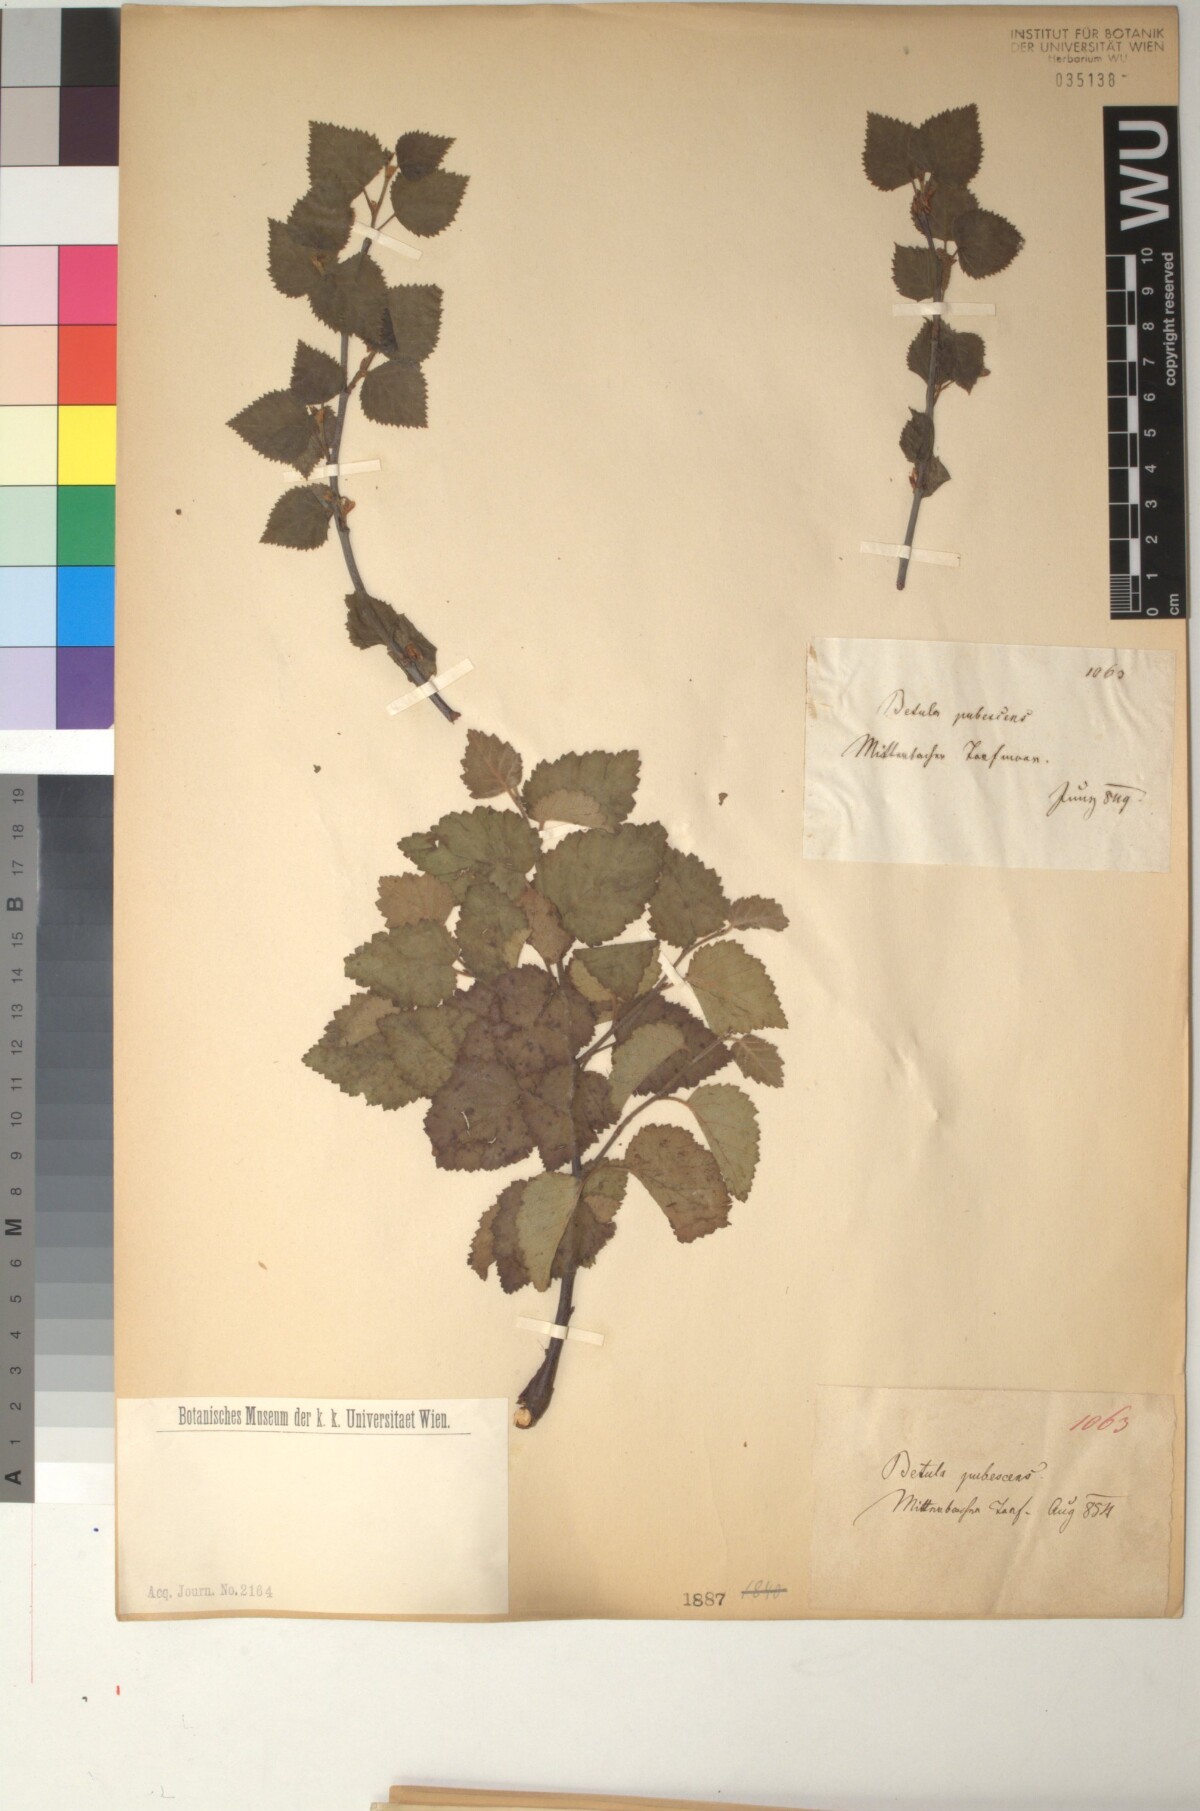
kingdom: Plantae
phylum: Tracheophyta
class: Magnoliopsida
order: Fagales
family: Betulaceae
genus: Betula
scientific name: Betula pubescens
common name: Downy birch
